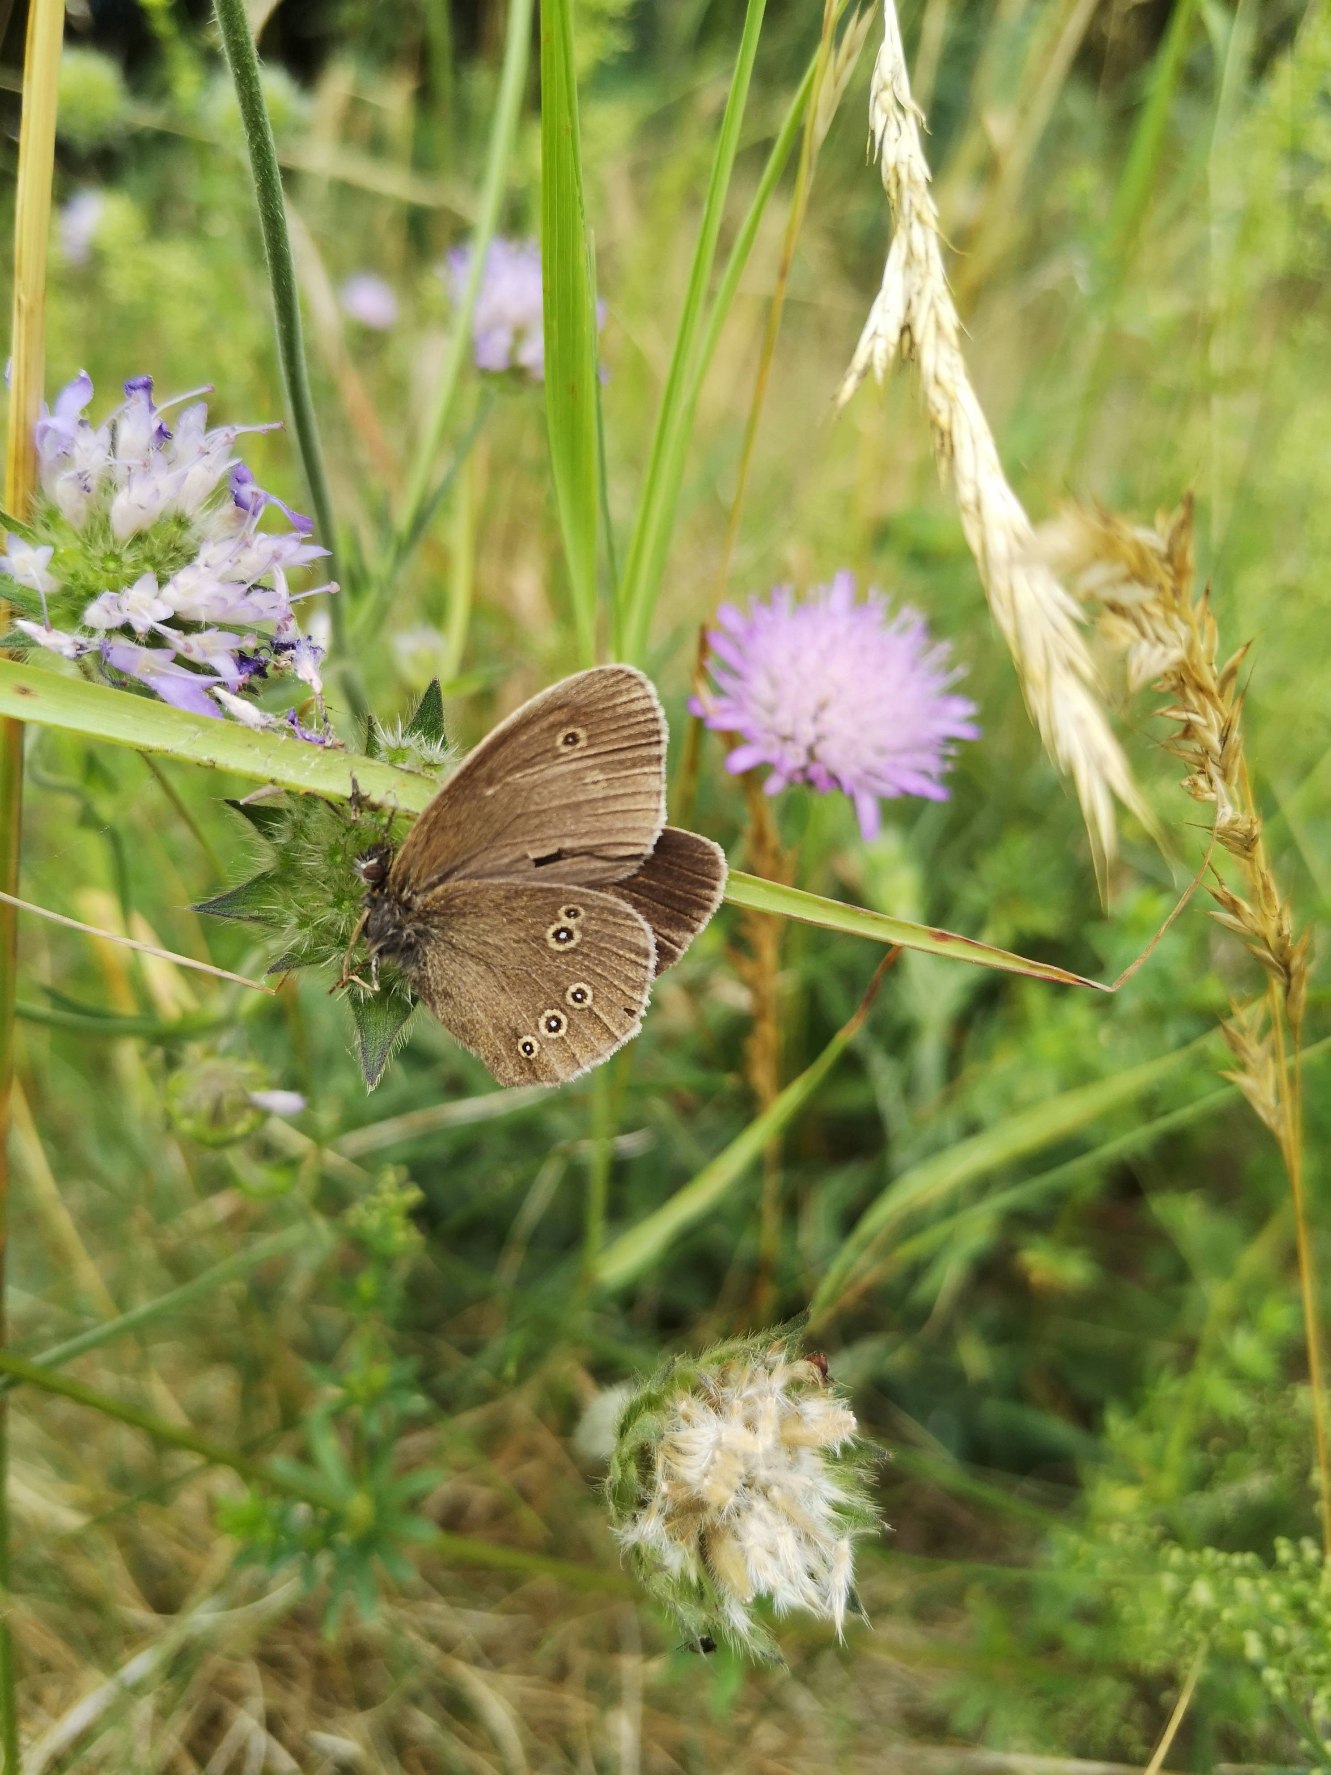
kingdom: Animalia
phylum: Arthropoda
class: Insecta
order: Lepidoptera
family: Nymphalidae
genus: Aphantopus
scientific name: Aphantopus hyperantus
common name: Engrandøje
